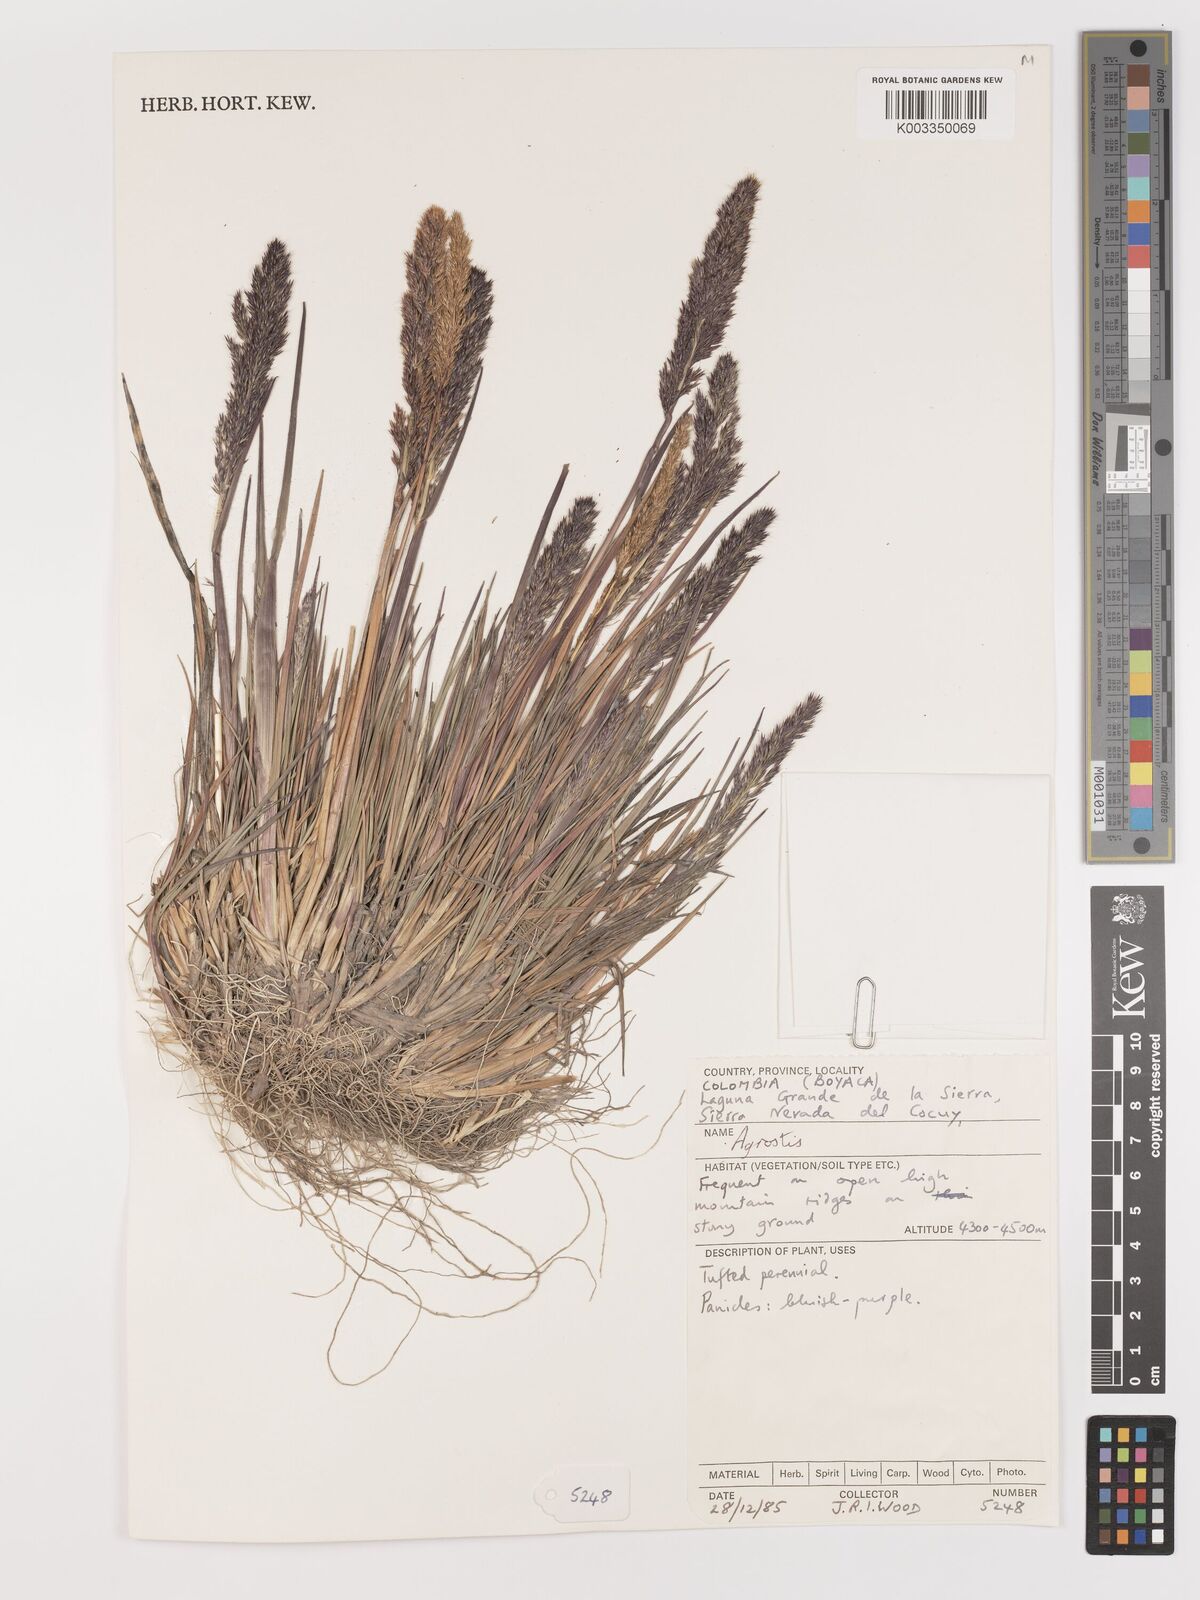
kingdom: Plantae
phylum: Tracheophyta
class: Liliopsida
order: Poales
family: Poaceae
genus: Agrostis
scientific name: Agrostis
